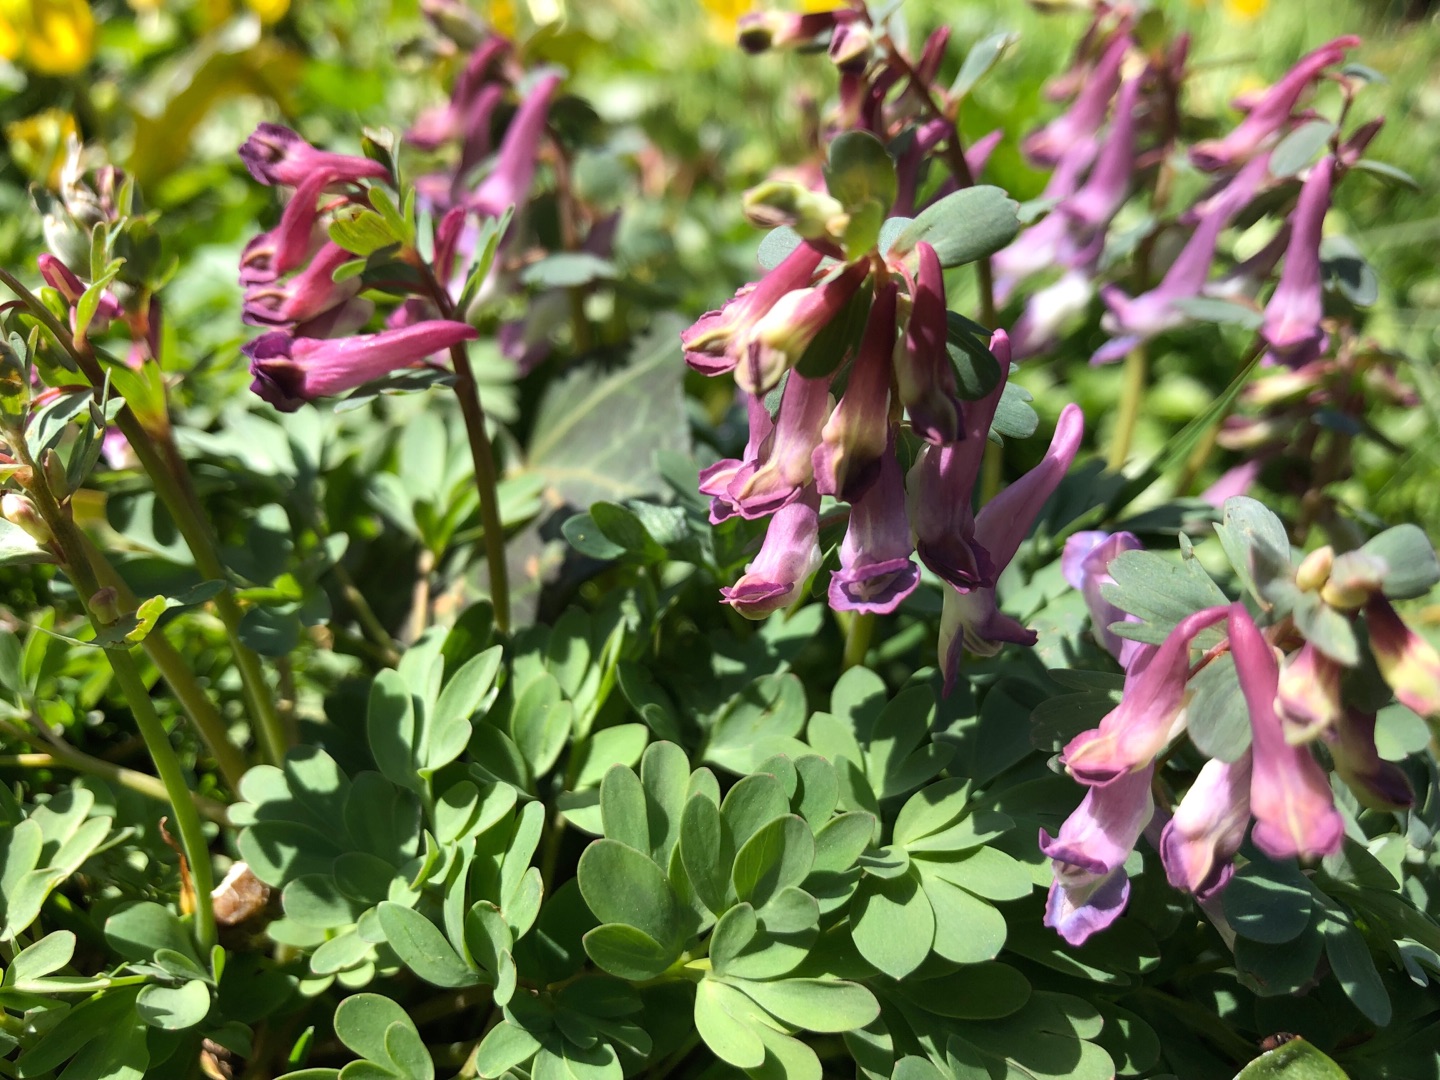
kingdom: Plantae
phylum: Tracheophyta
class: Magnoliopsida
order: Ranunculales
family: Papaveraceae
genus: Corydalis
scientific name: Corydalis solida
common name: Langstilket lærkespore
